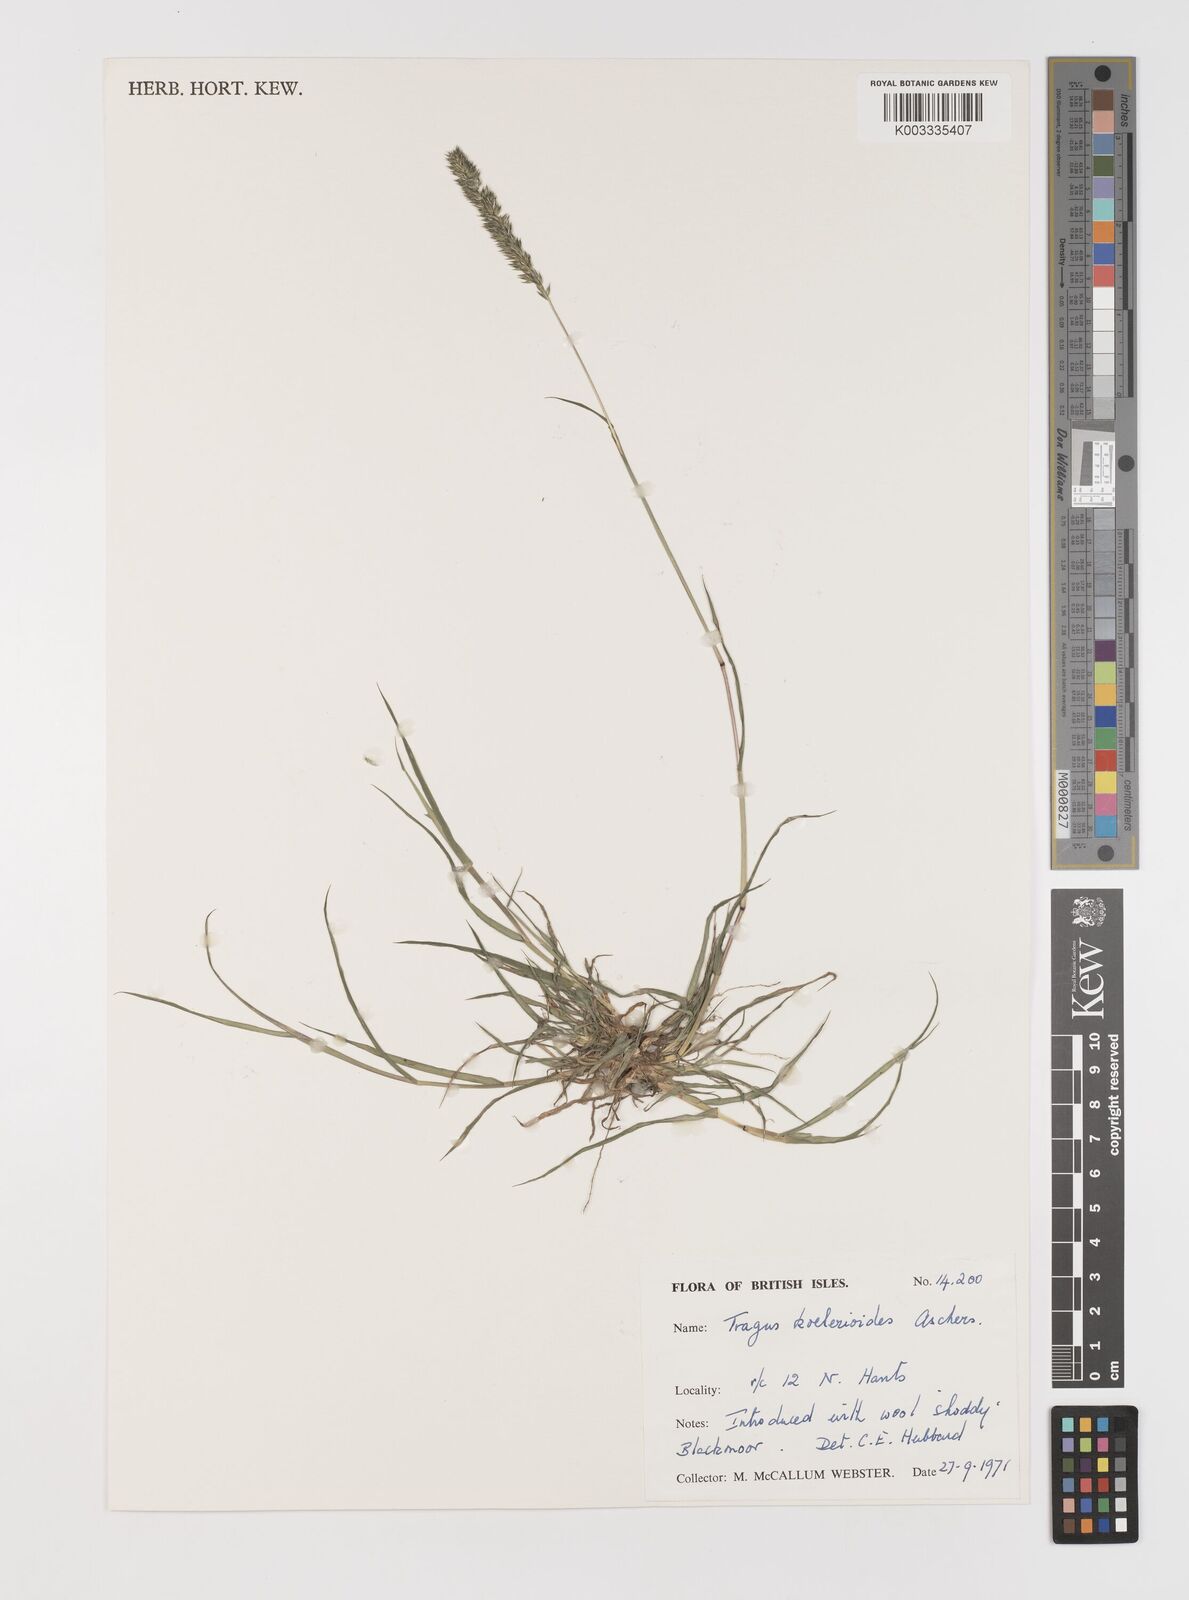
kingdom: Plantae
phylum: Tracheophyta
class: Liliopsida
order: Poales
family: Poaceae
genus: Tragus
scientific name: Tragus koelerioides
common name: Creeping carrot-seed grass
